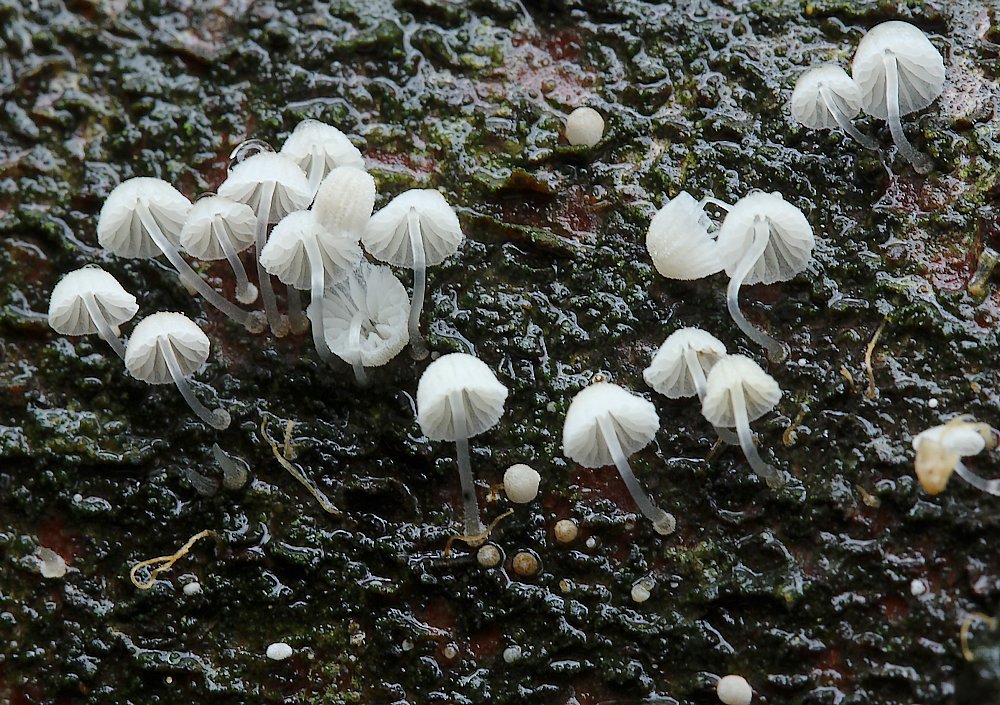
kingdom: Fungi
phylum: Basidiomycota
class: Agaricomycetes
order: Agaricales
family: Mycenaceae
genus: Mycena
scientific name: Mycena tenerrima
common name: pudret huesvamp
